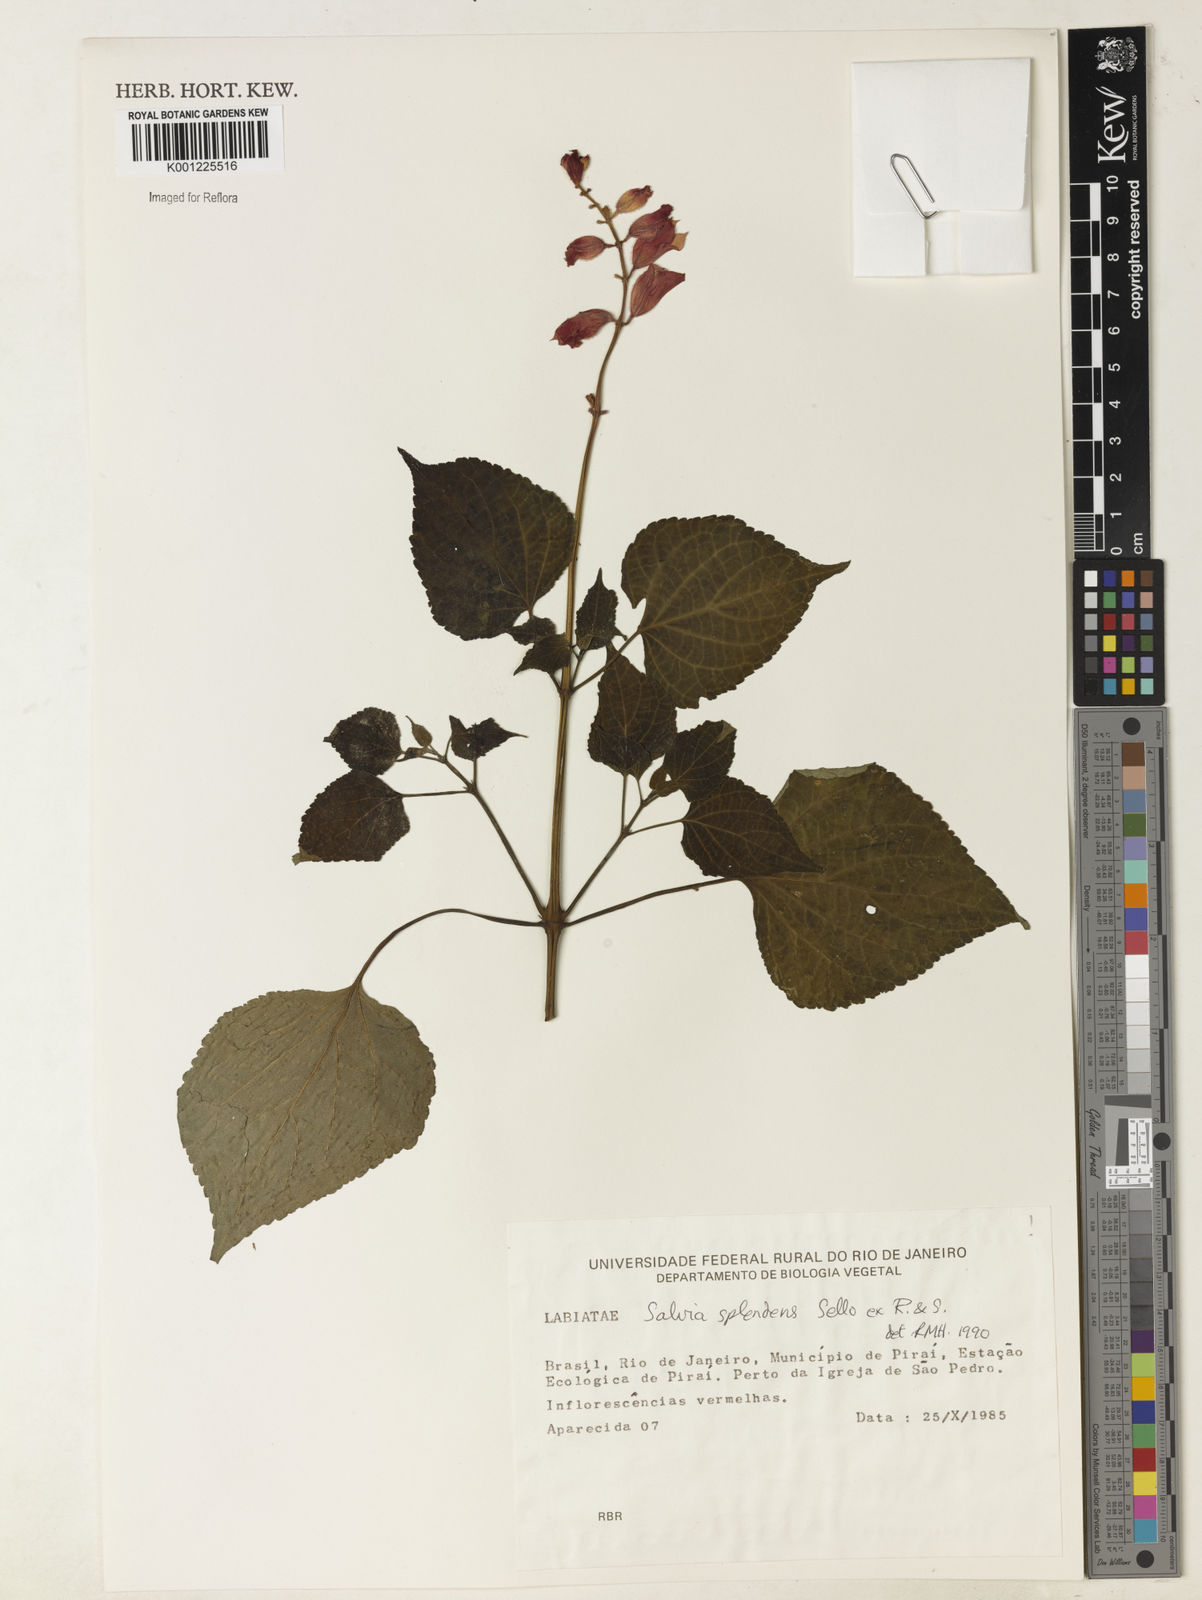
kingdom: Plantae
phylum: Tracheophyta
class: Magnoliopsida
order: Lamiales
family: Lamiaceae
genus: Salvia
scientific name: Salvia
